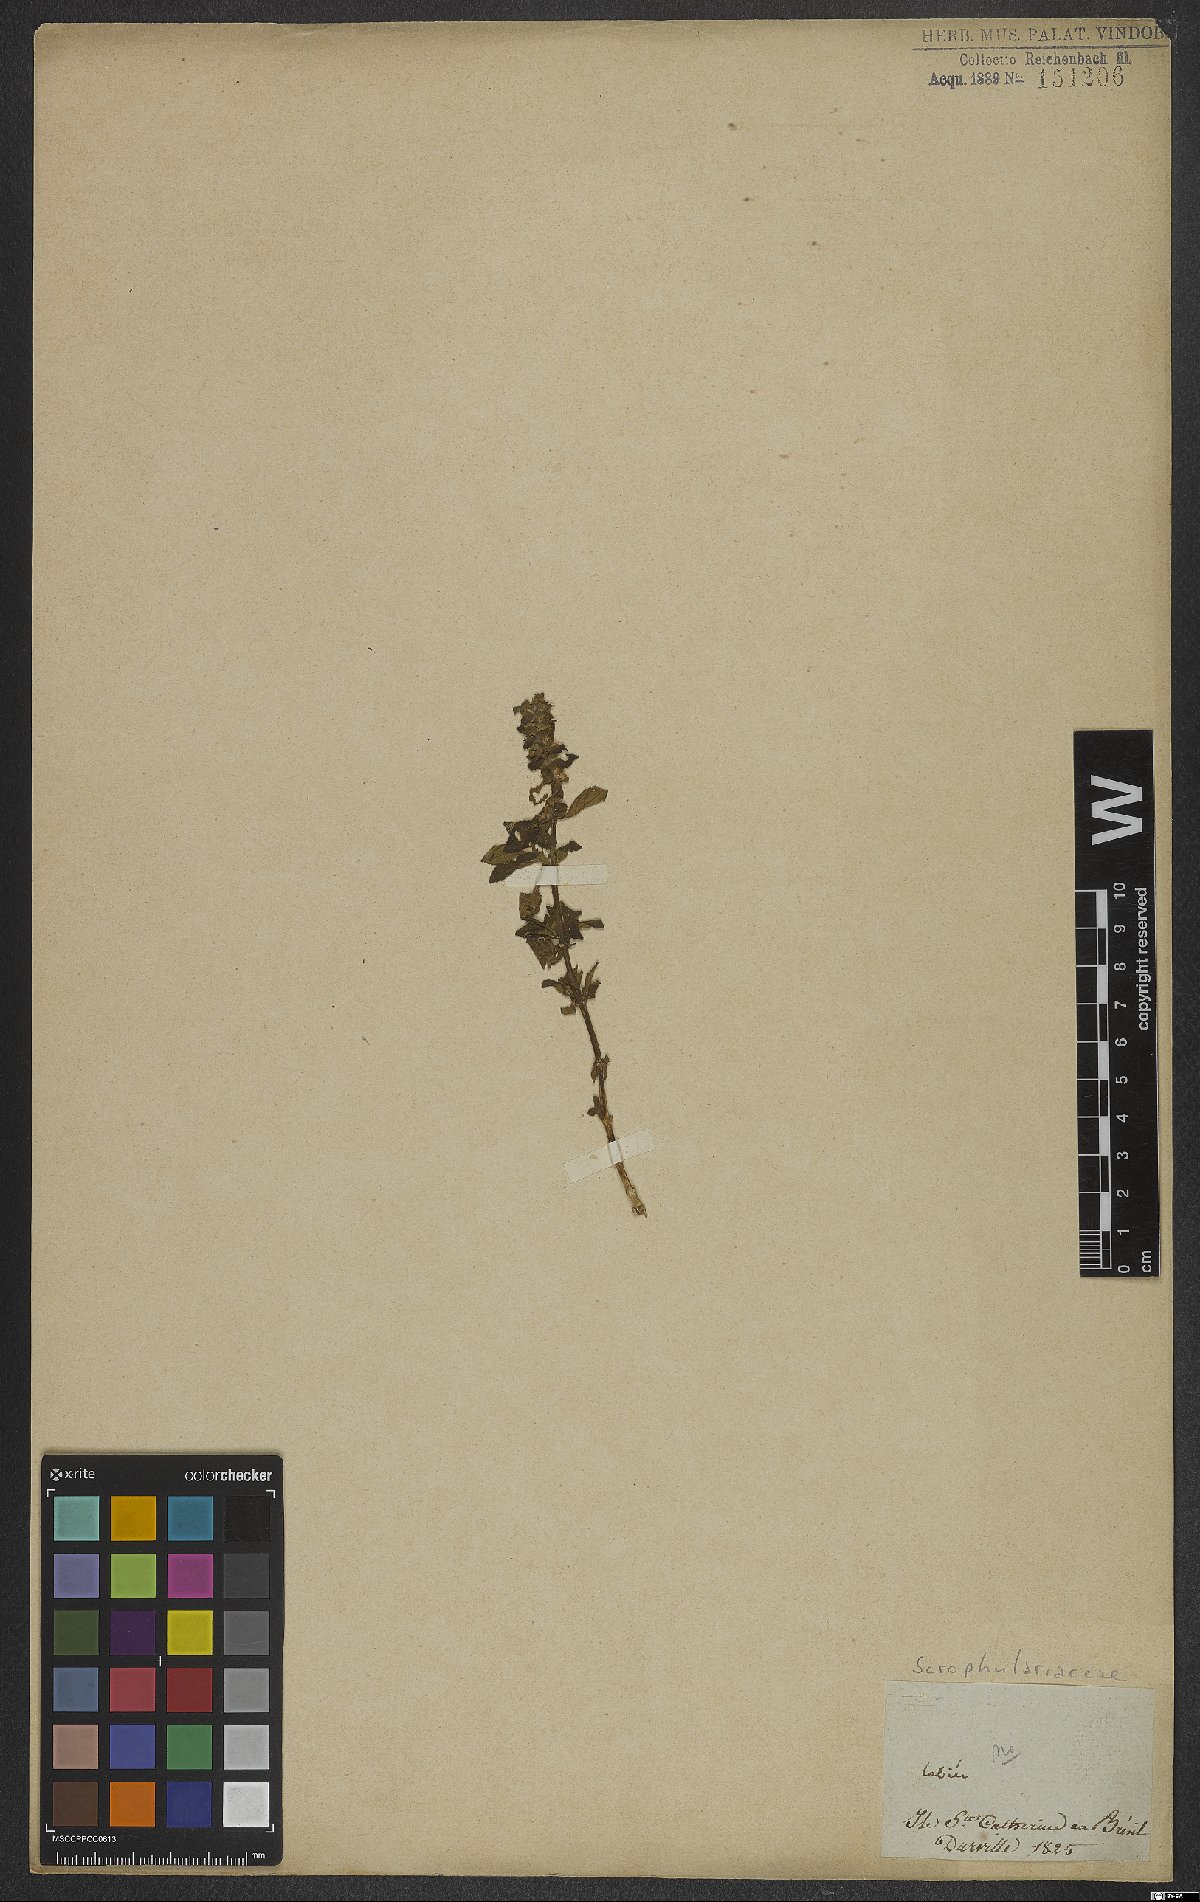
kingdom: Plantae
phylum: Tracheophyta
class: Magnoliopsida
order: Lamiales
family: Scrophulariaceae
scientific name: Scrophulariaceae
